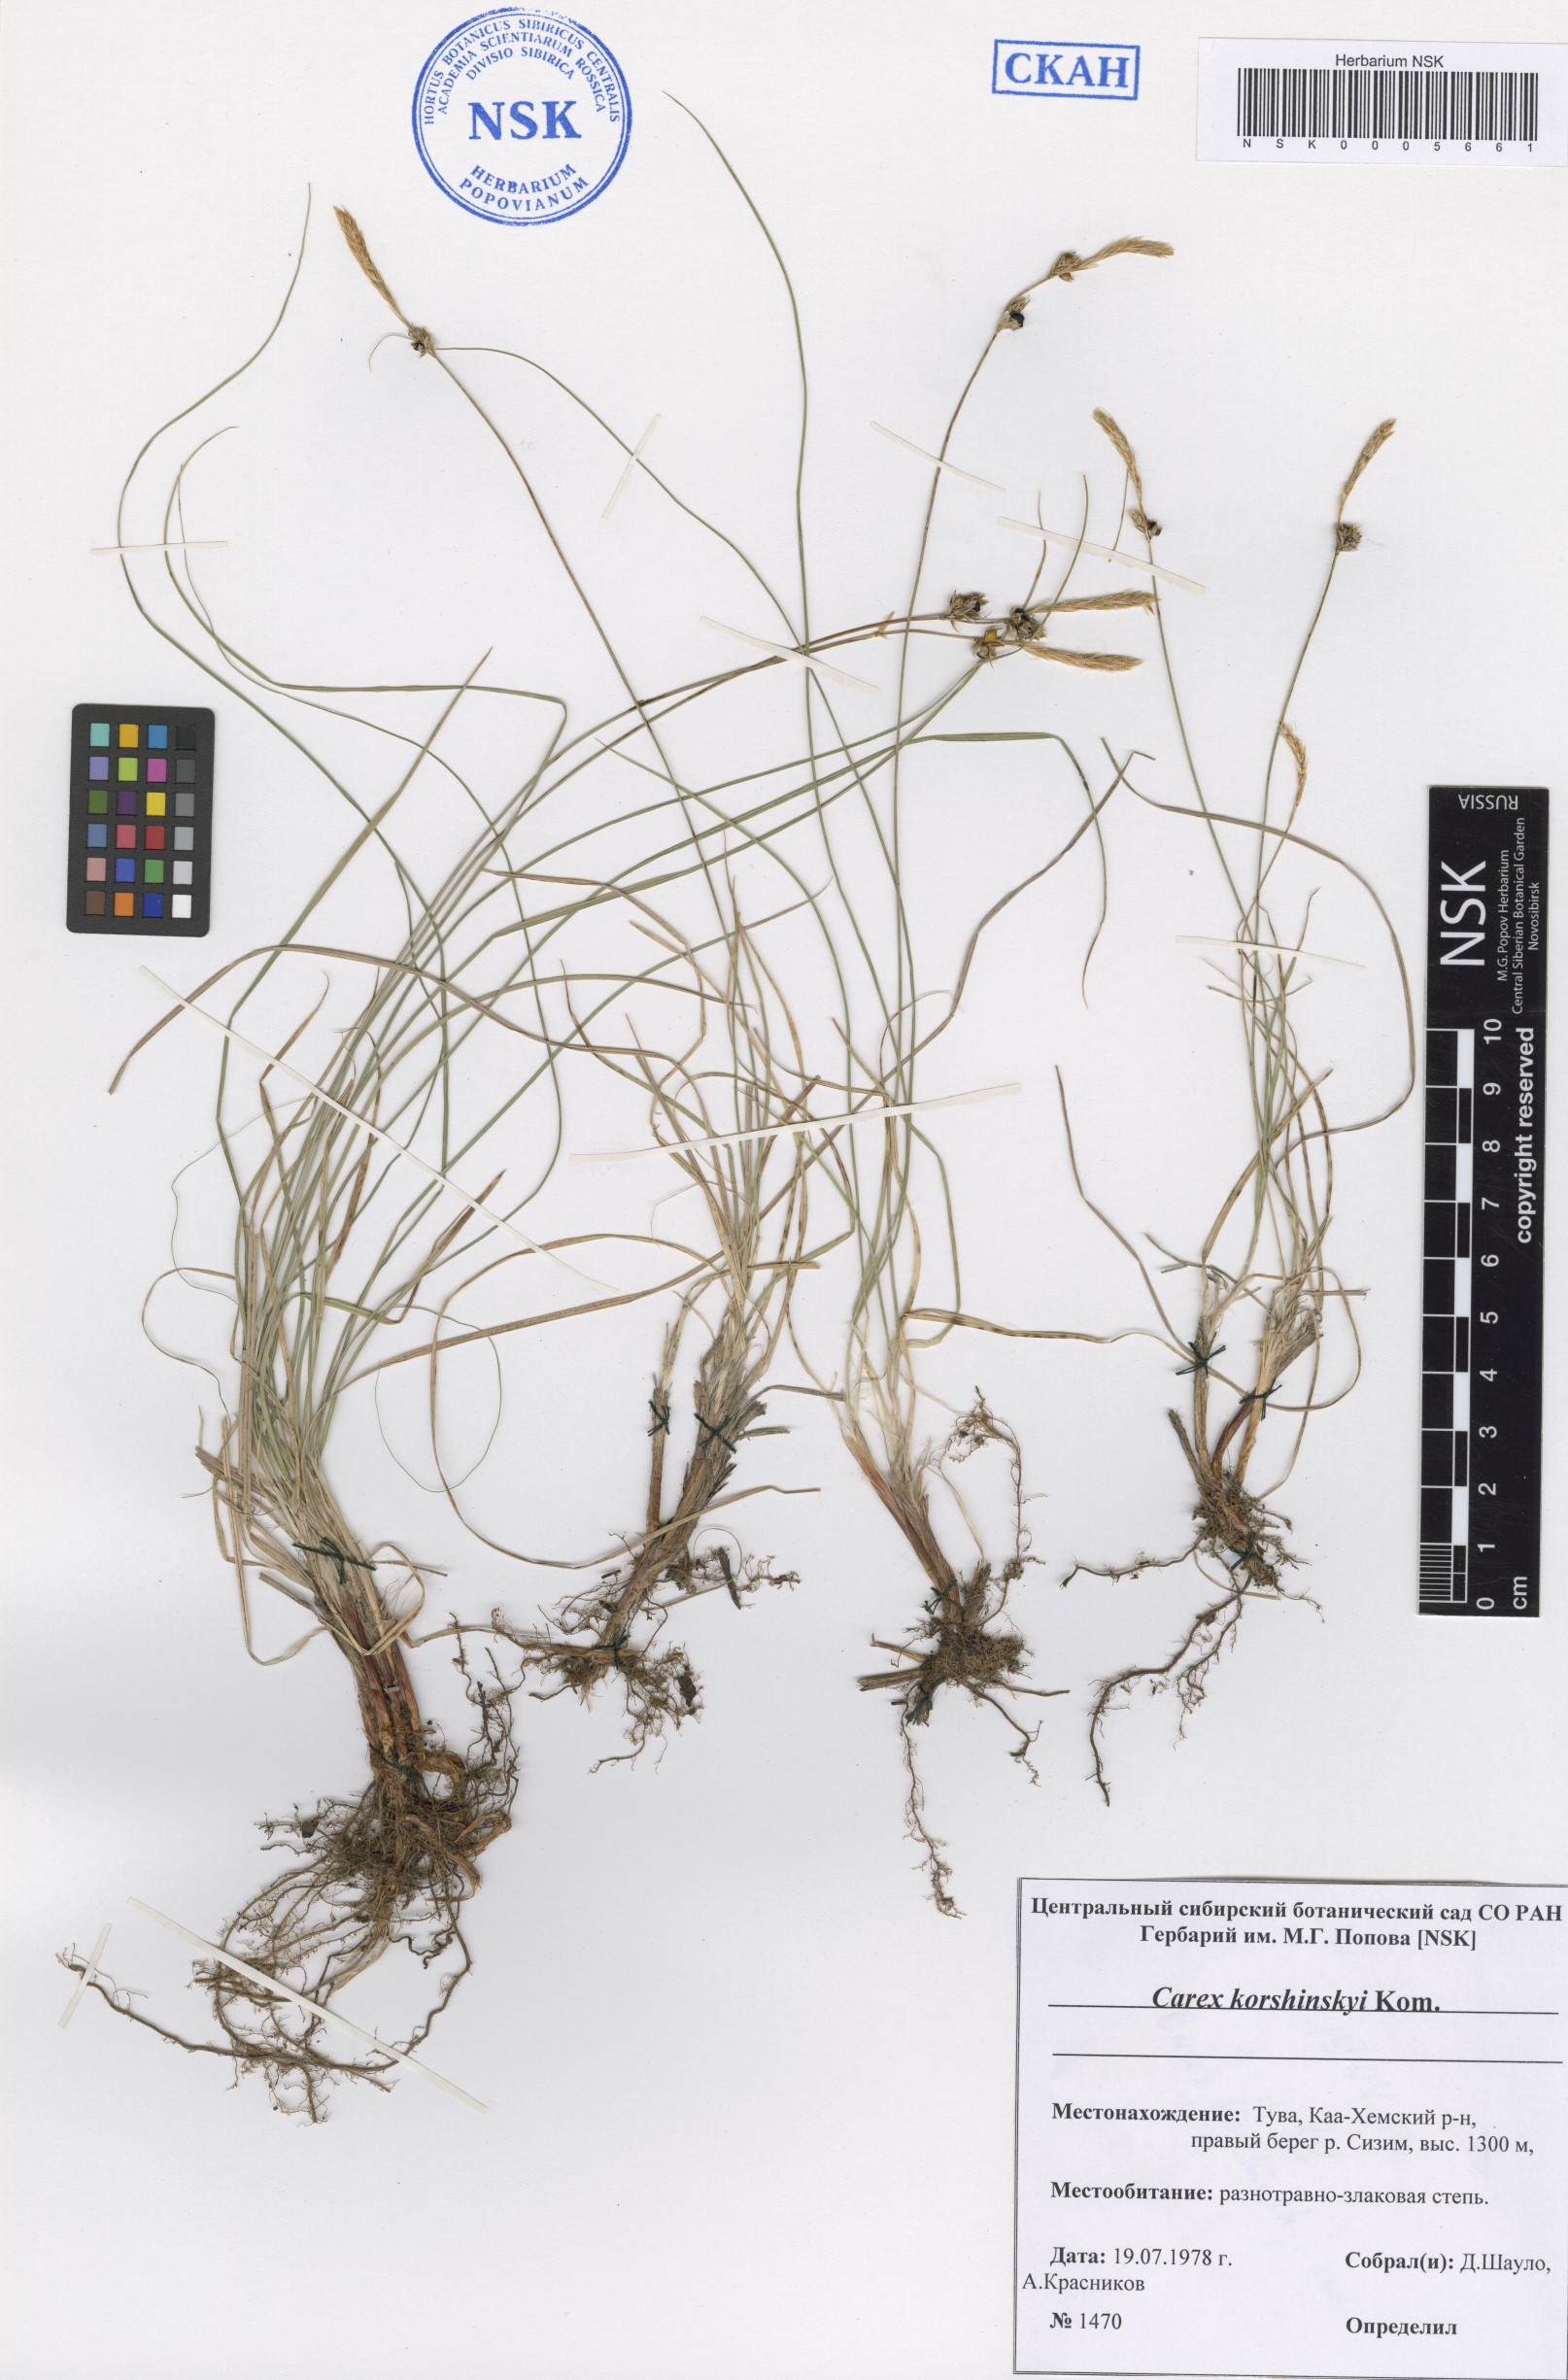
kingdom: Plantae
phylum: Tracheophyta
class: Liliopsida
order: Poales
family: Cyperaceae
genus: Carex
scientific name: Carex korshinskyi
